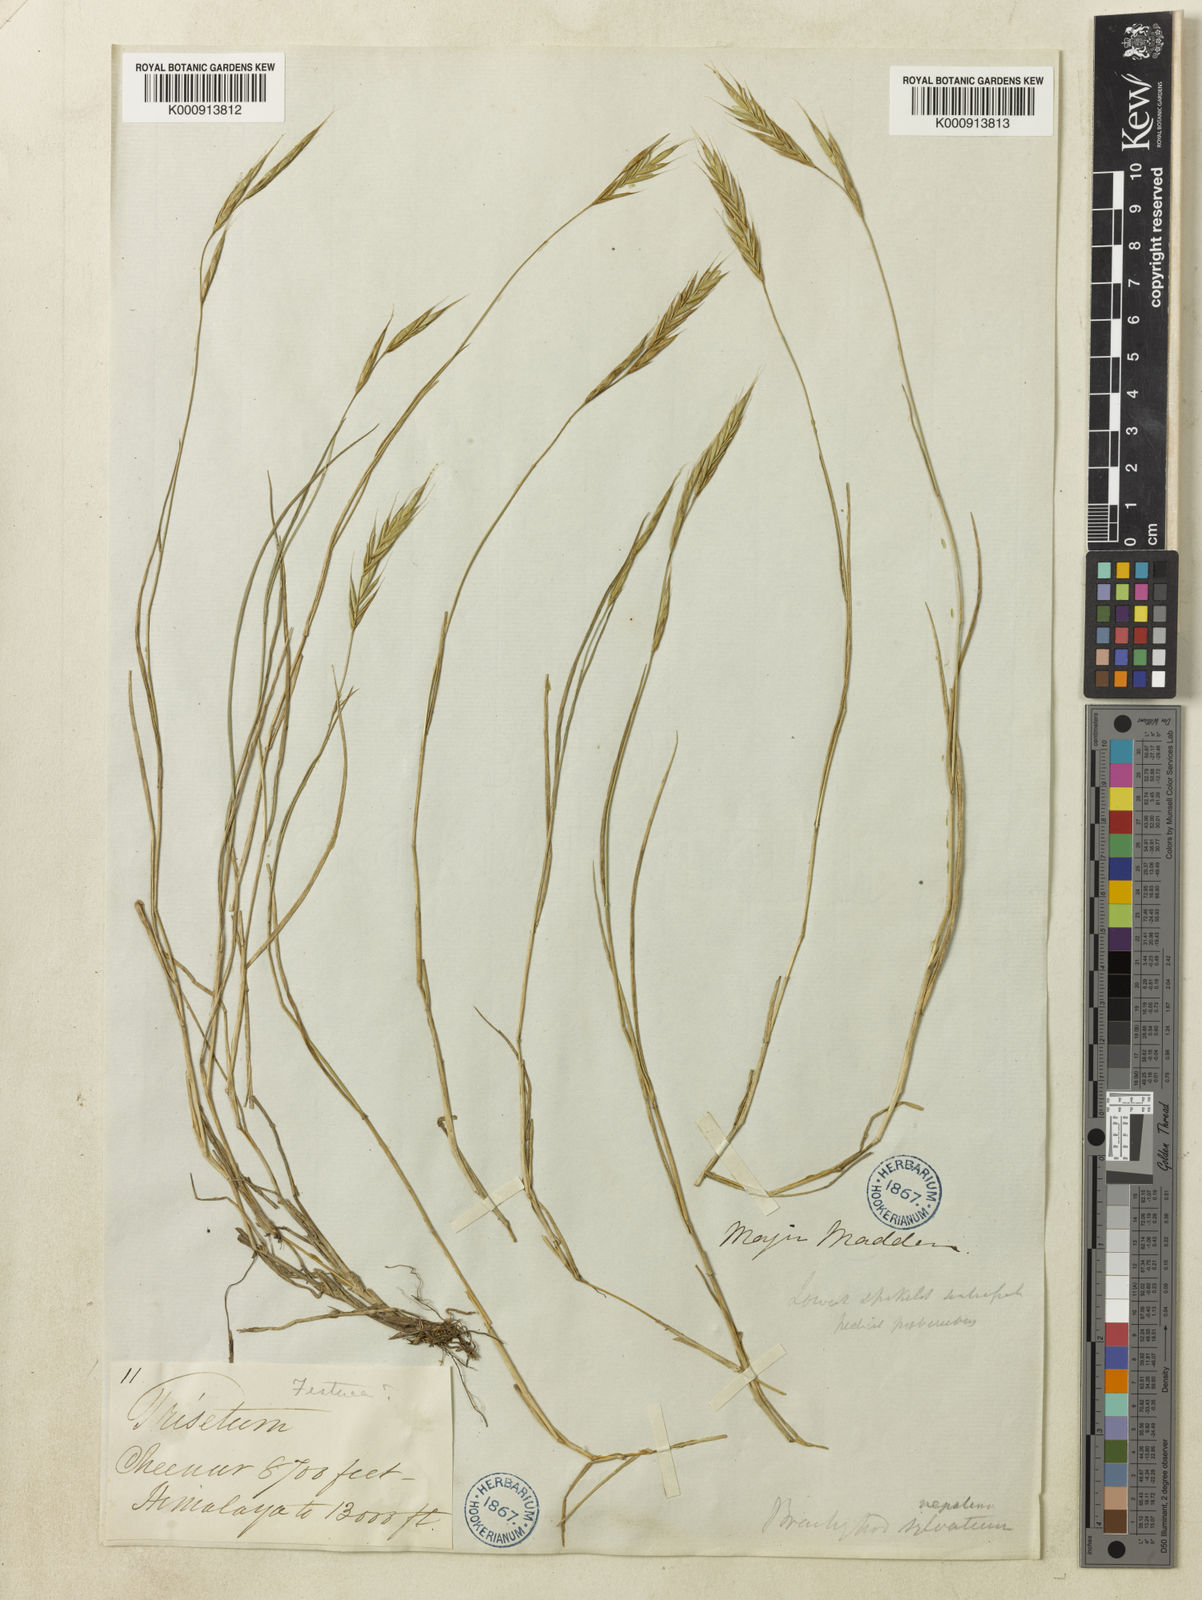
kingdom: Plantae
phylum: Tracheophyta
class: Liliopsida
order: Poales
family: Poaceae
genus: Brachypodium
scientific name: Brachypodium sylvaticum
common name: False-brome
